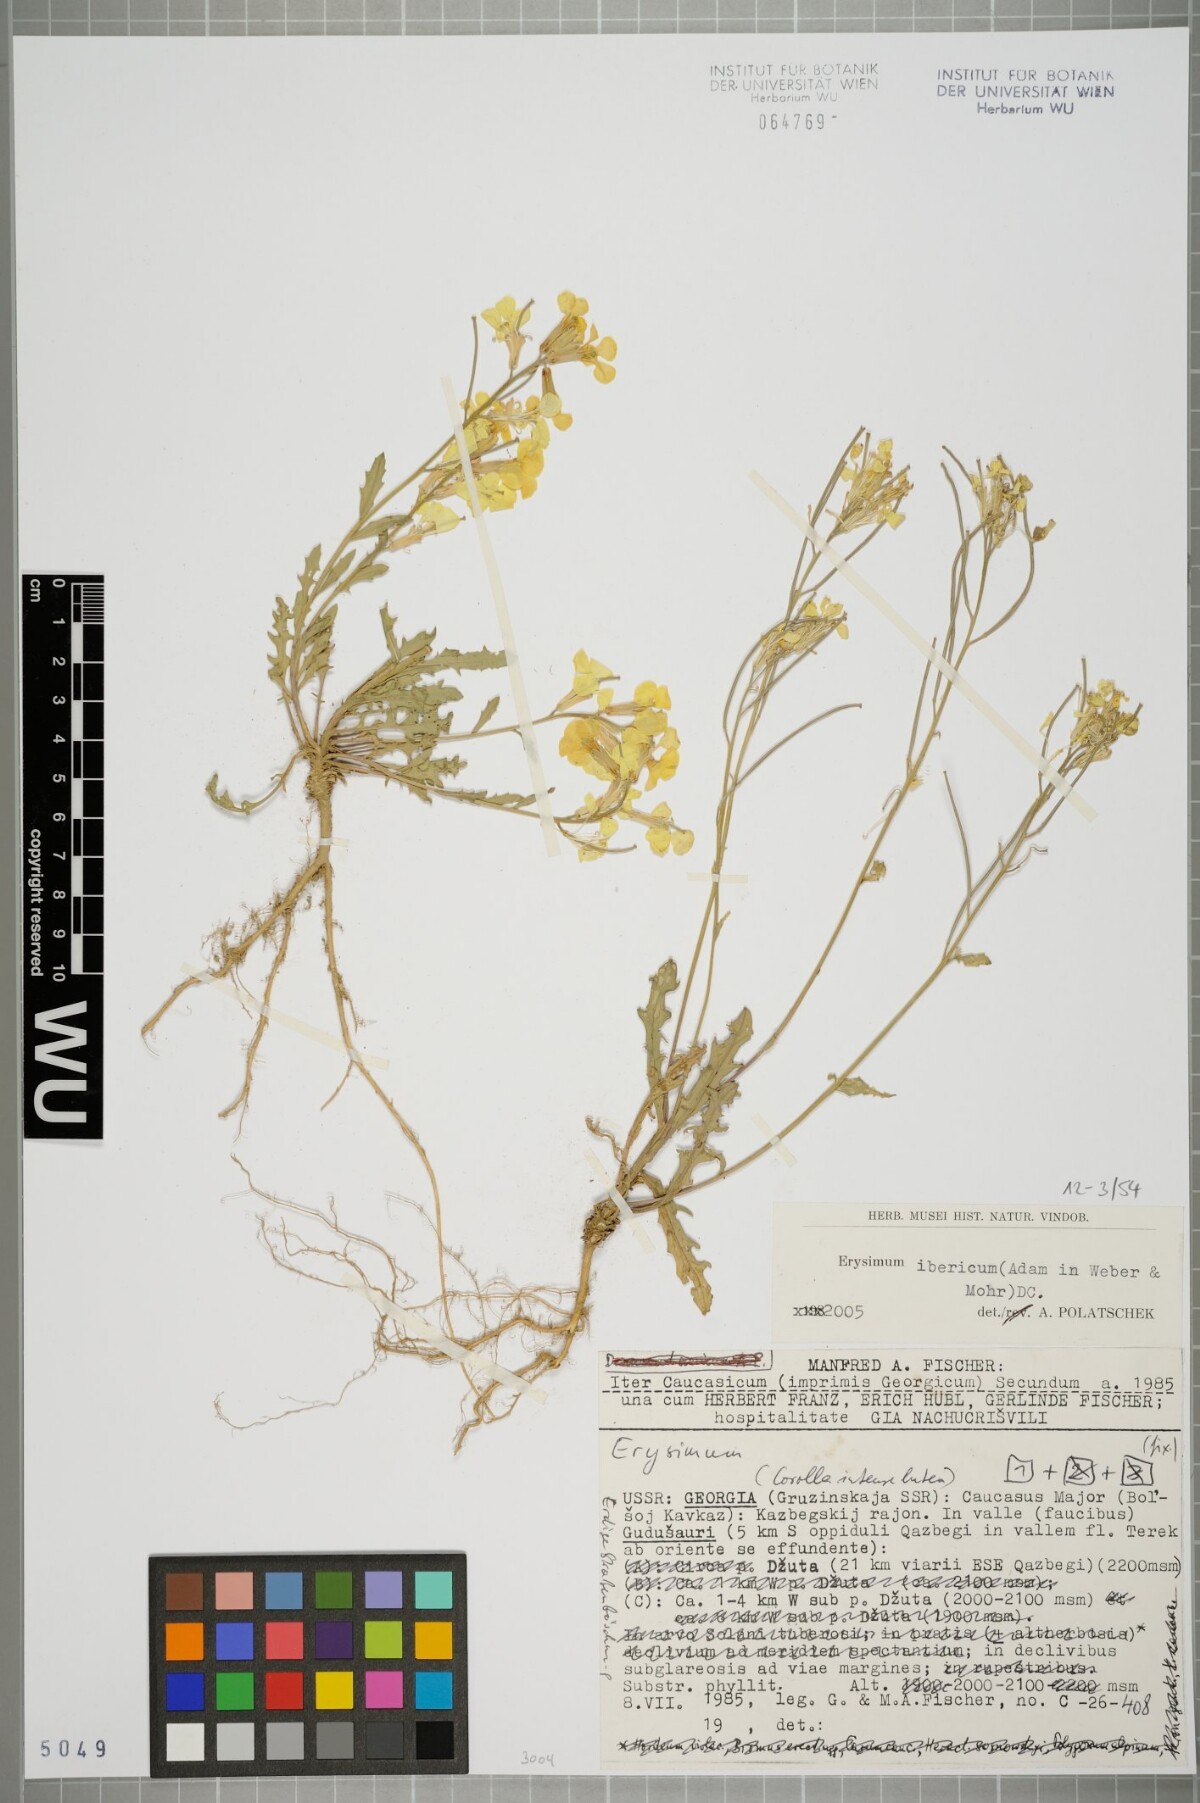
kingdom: Plantae
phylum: Tracheophyta
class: Magnoliopsida
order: Brassicales
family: Brassicaceae
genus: Erysimum
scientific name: Erysimum ibericum
